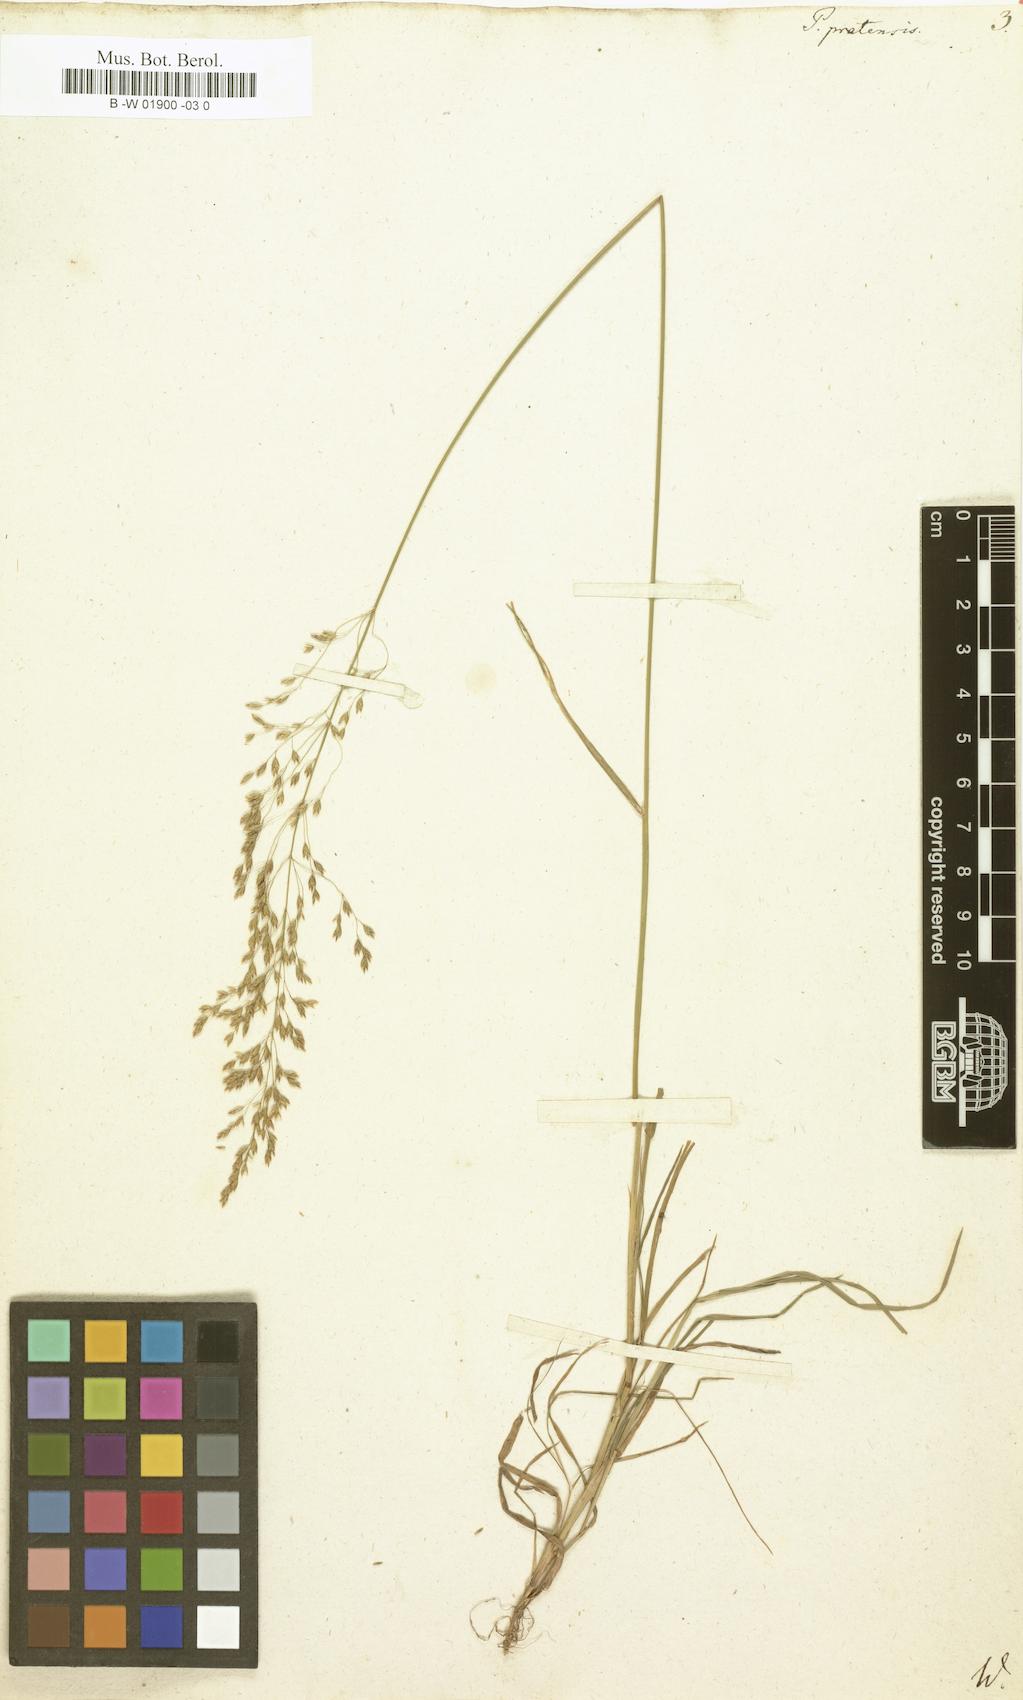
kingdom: Plantae
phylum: Tracheophyta
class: Liliopsida
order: Poales
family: Poaceae
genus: Poa
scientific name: Poa pratensis
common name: Kentucky bluegrass
